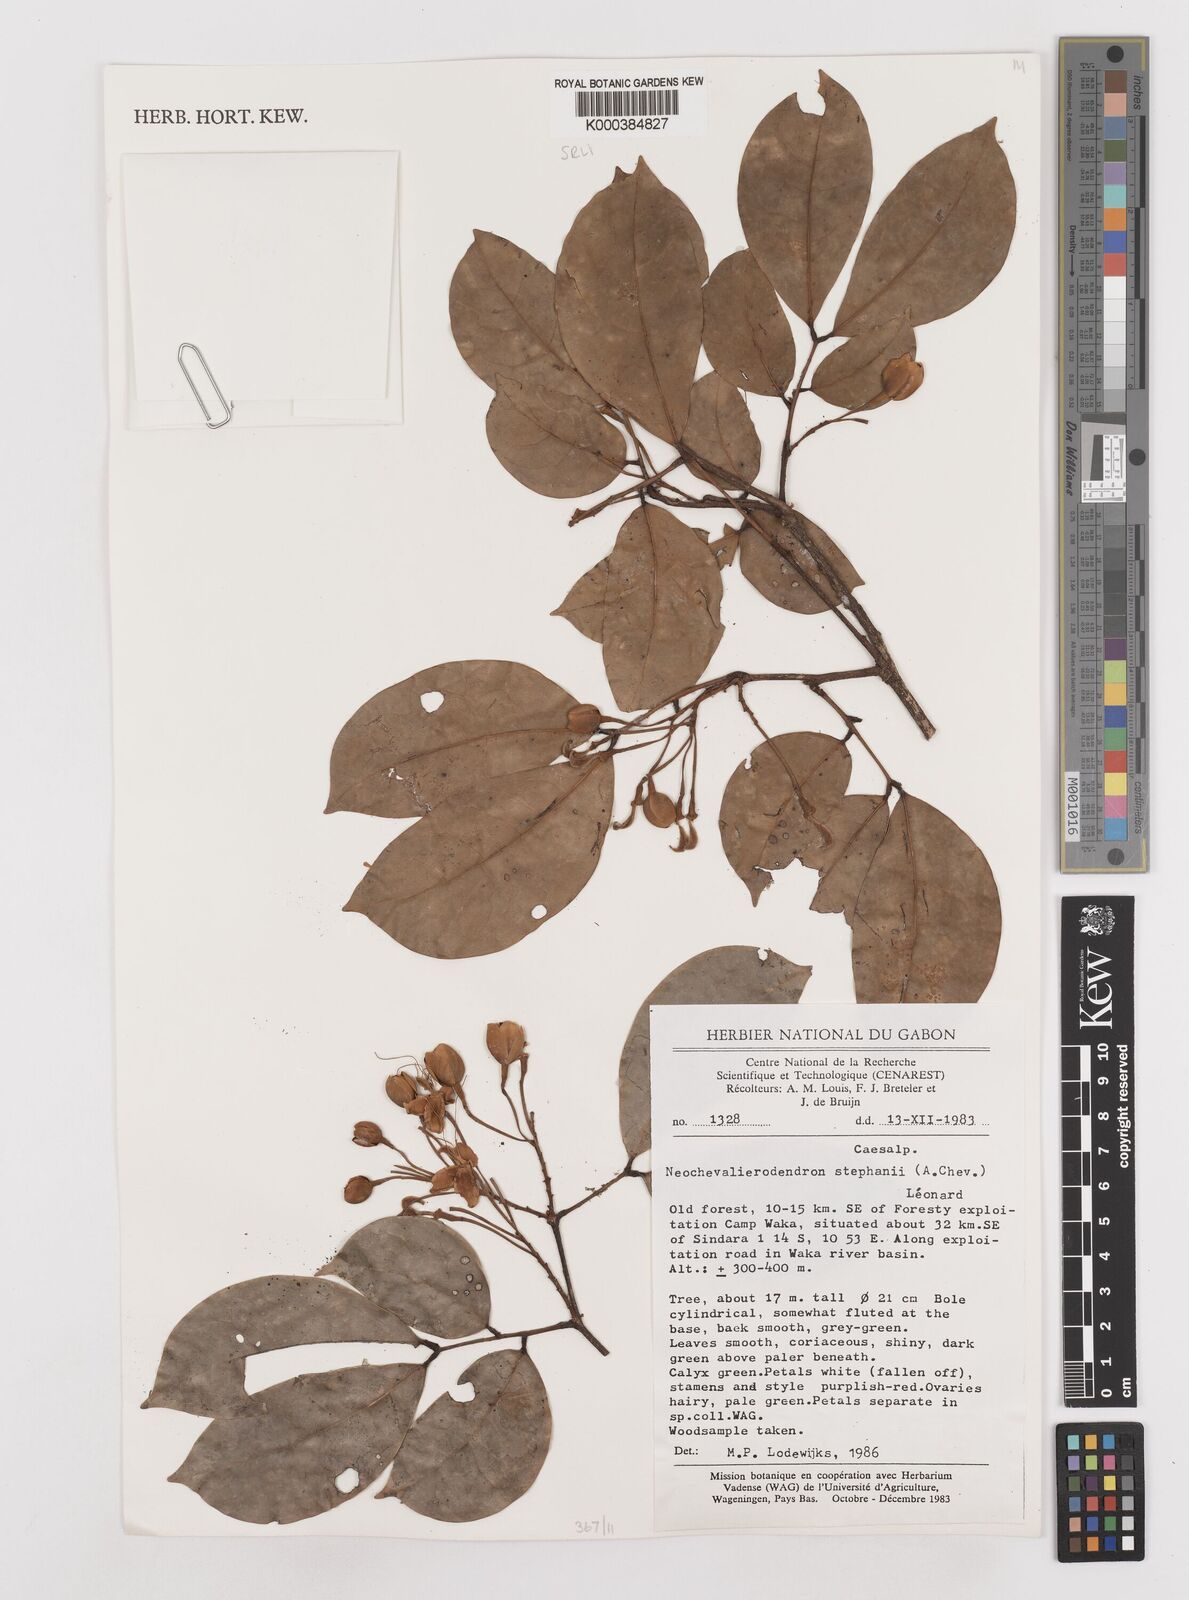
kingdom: Plantae
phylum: Tracheophyta
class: Magnoliopsida
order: Fabales
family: Fabaceae
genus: Neochevalierodendron
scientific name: Neochevalierodendron stephanii
